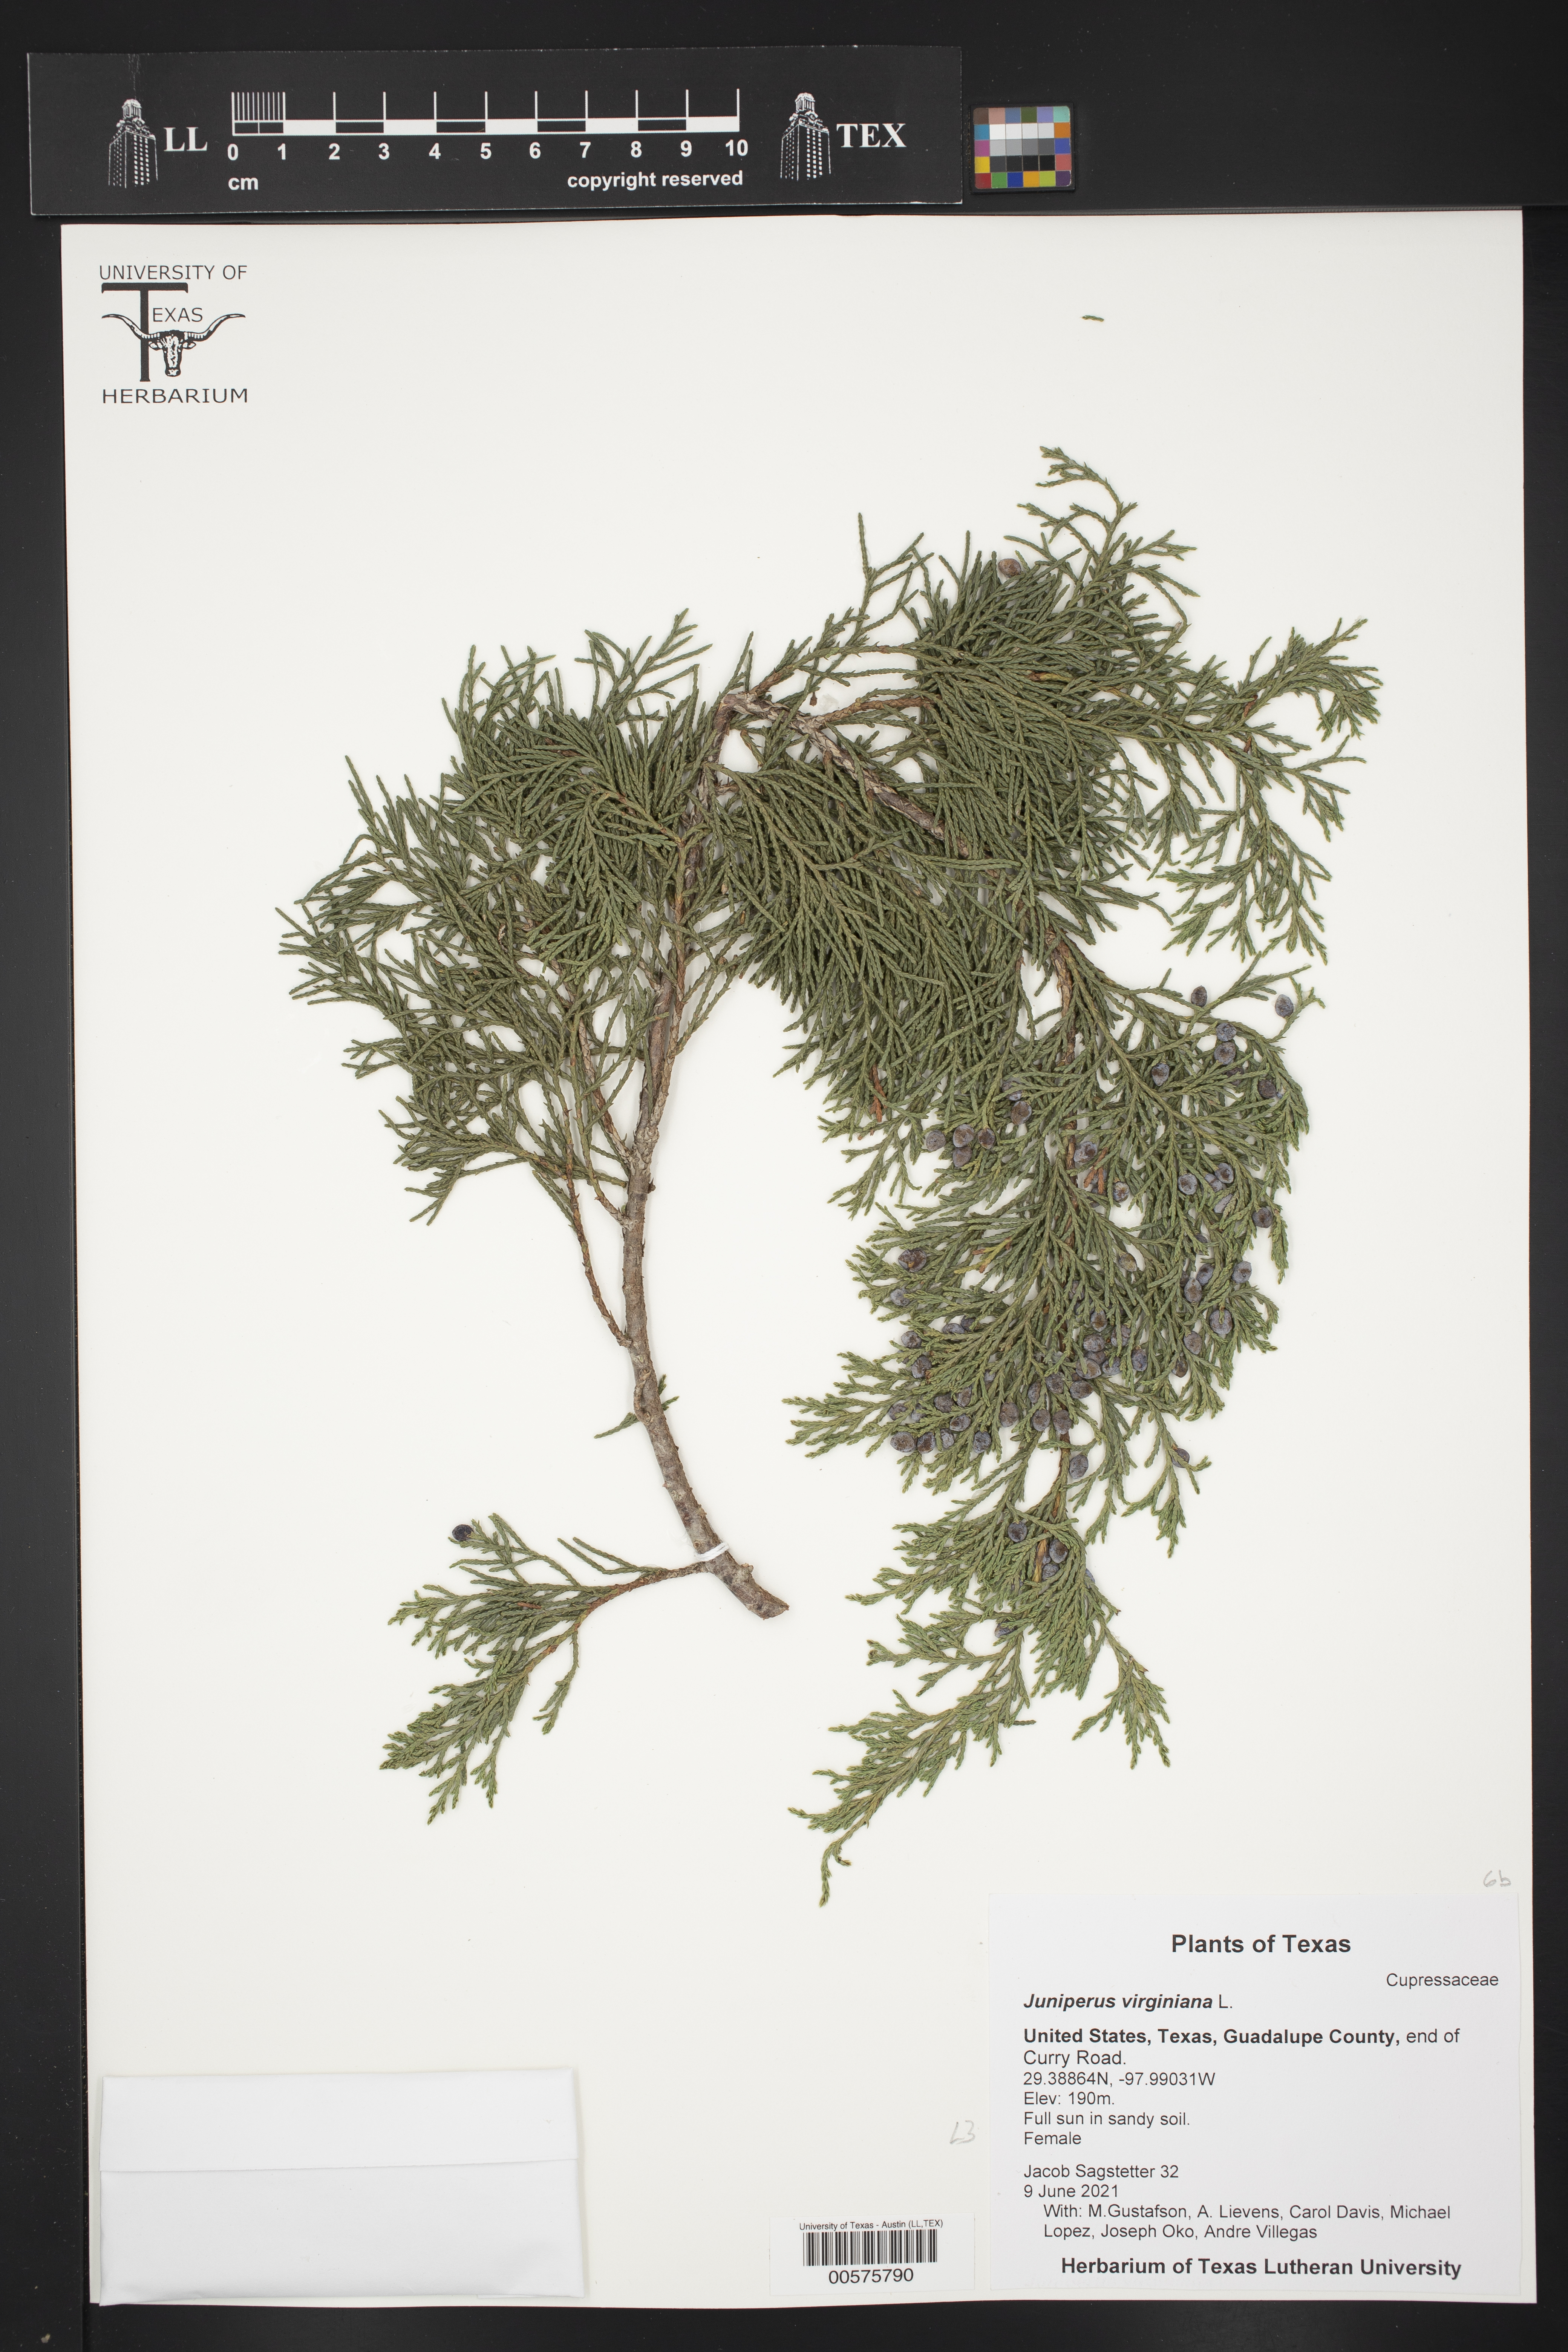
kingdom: Plantae
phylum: Tracheophyta
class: Pinopsida
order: Pinales
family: Cupressaceae
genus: Juniperus
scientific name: Juniperus virginiana
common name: Red juniper
